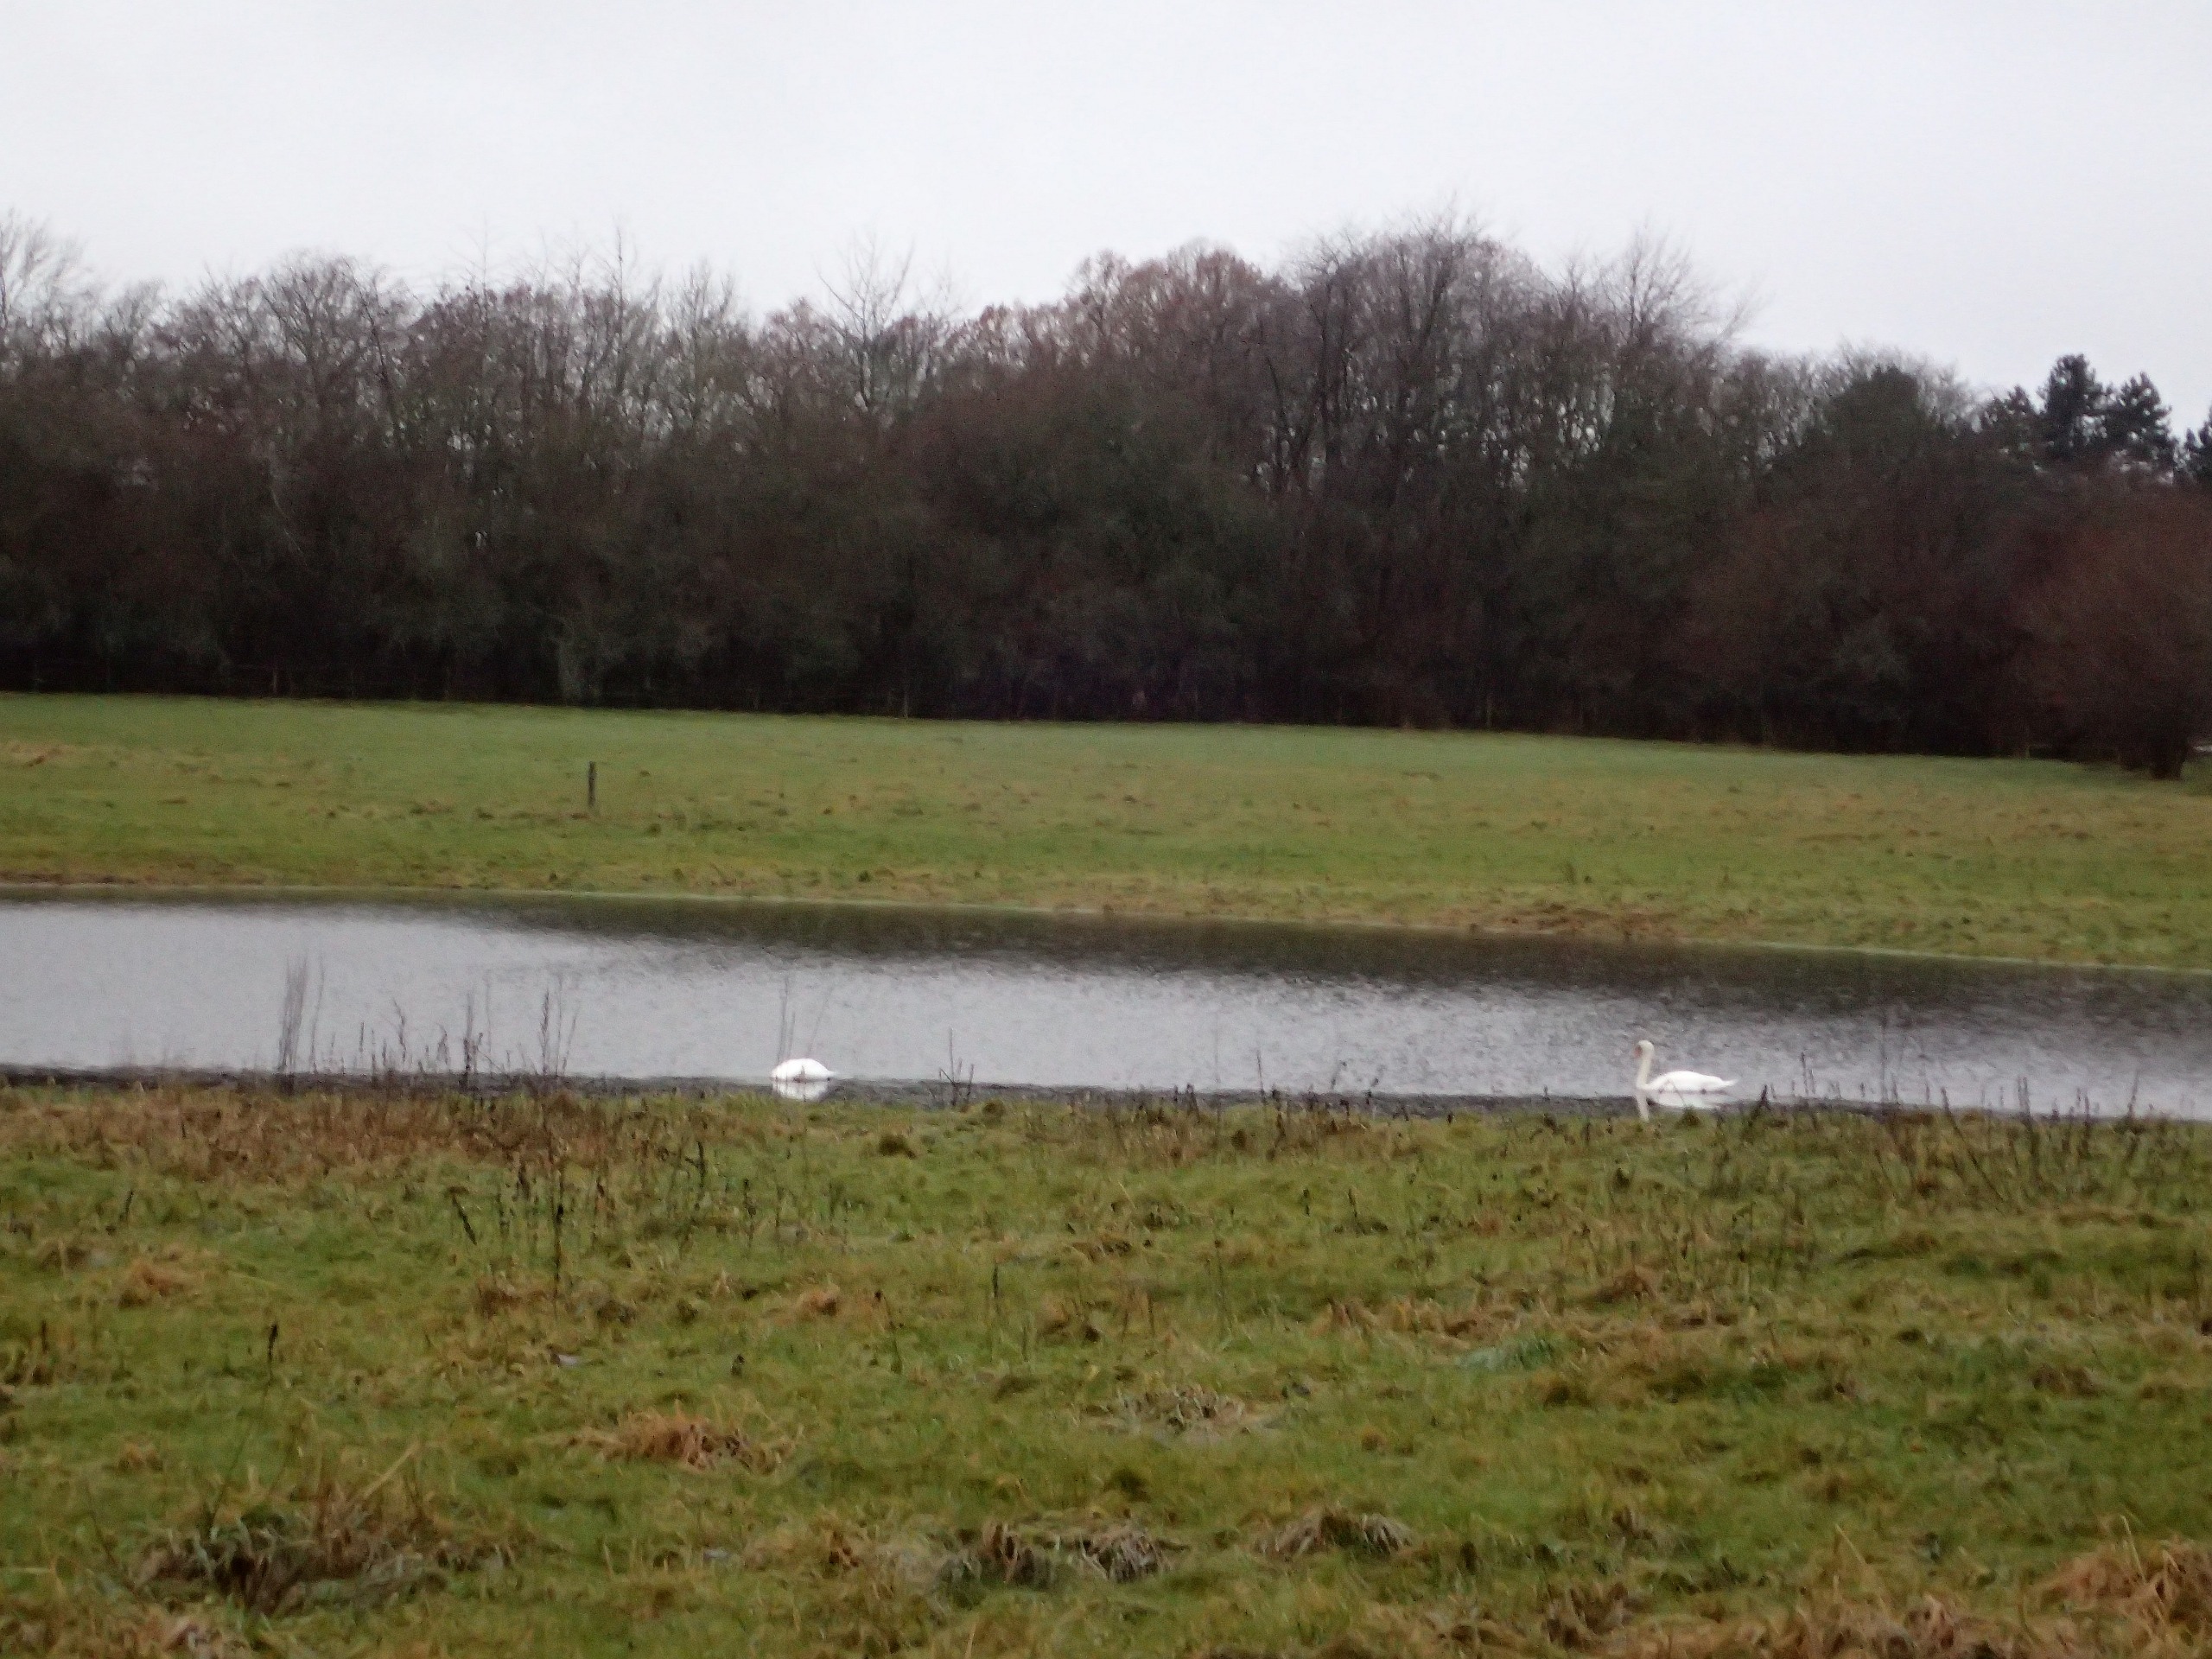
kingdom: Animalia
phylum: Chordata
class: Aves
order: Anseriformes
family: Anatidae
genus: Cygnus
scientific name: Cygnus olor
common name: Knopsvane
